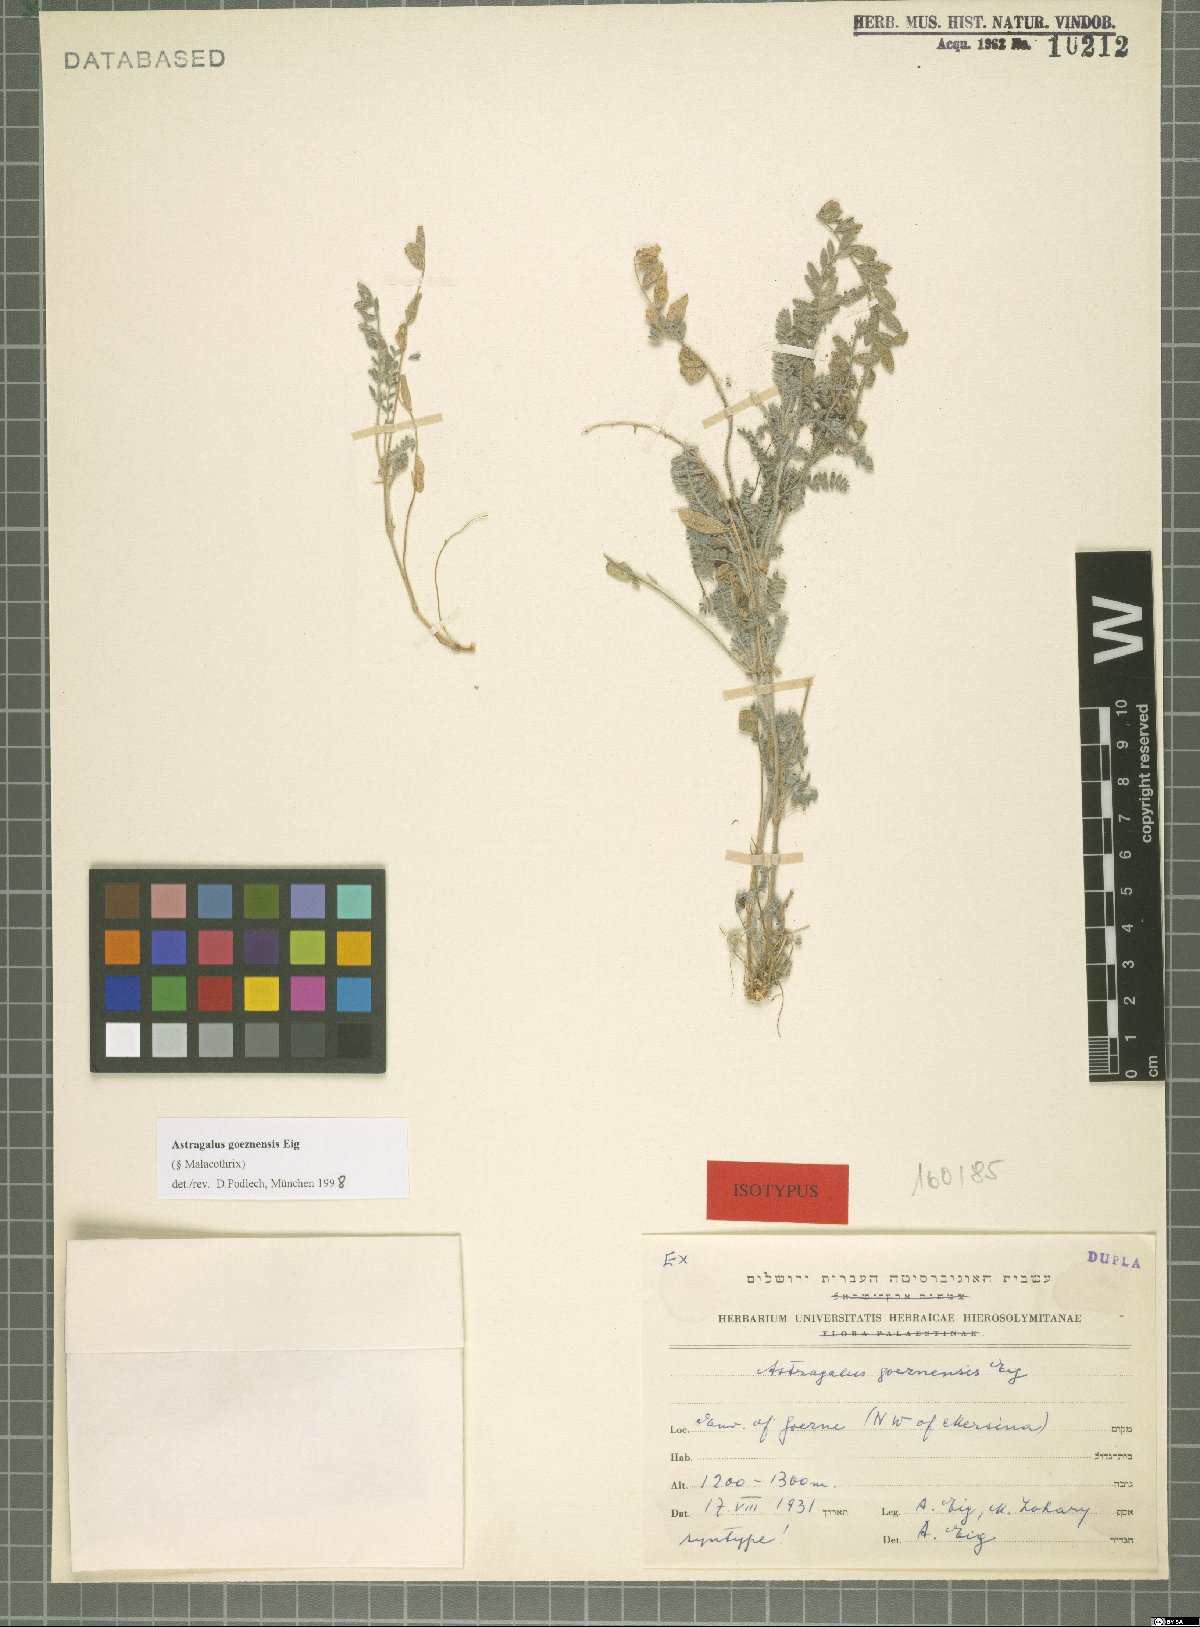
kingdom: Plantae
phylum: Tracheophyta
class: Magnoliopsida
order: Fabales
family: Fabaceae
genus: Astragalus
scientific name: Astragalus goeznensis
